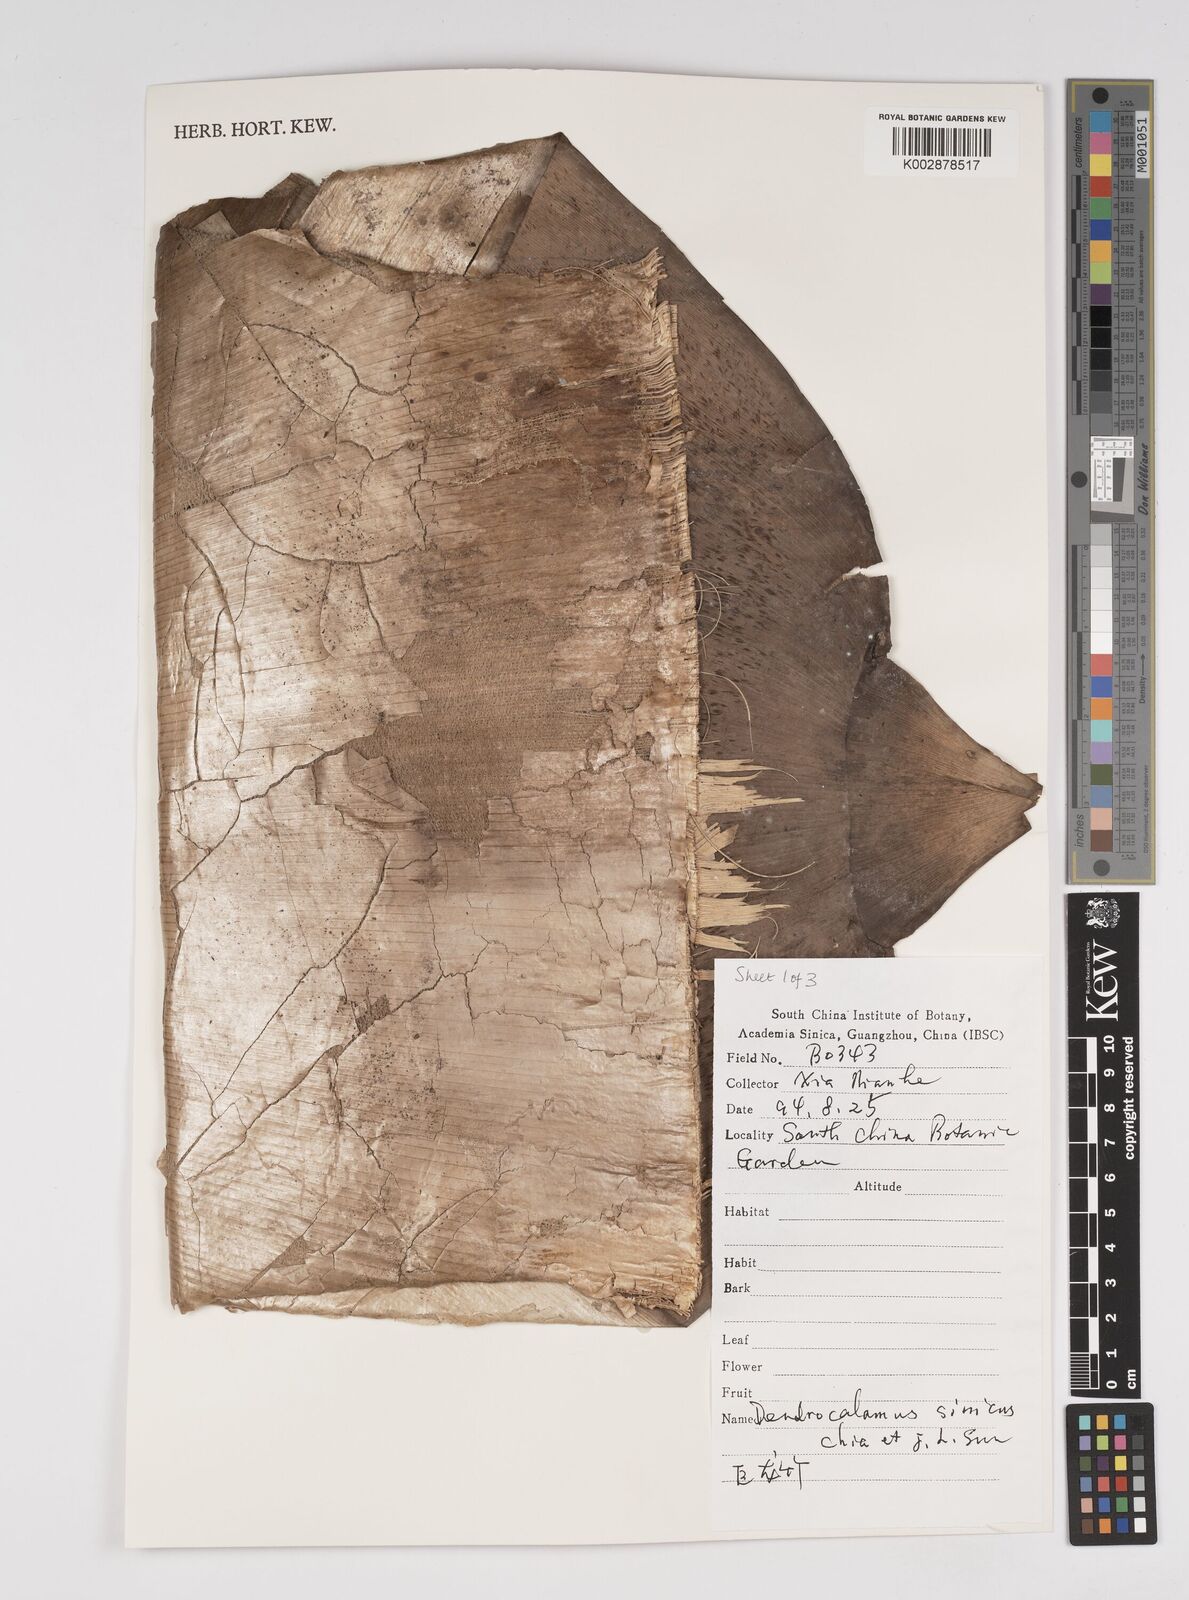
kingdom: Plantae
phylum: Tracheophyta
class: Liliopsida
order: Poales
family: Poaceae
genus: Dendrocalamus
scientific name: Dendrocalamus sinicus
